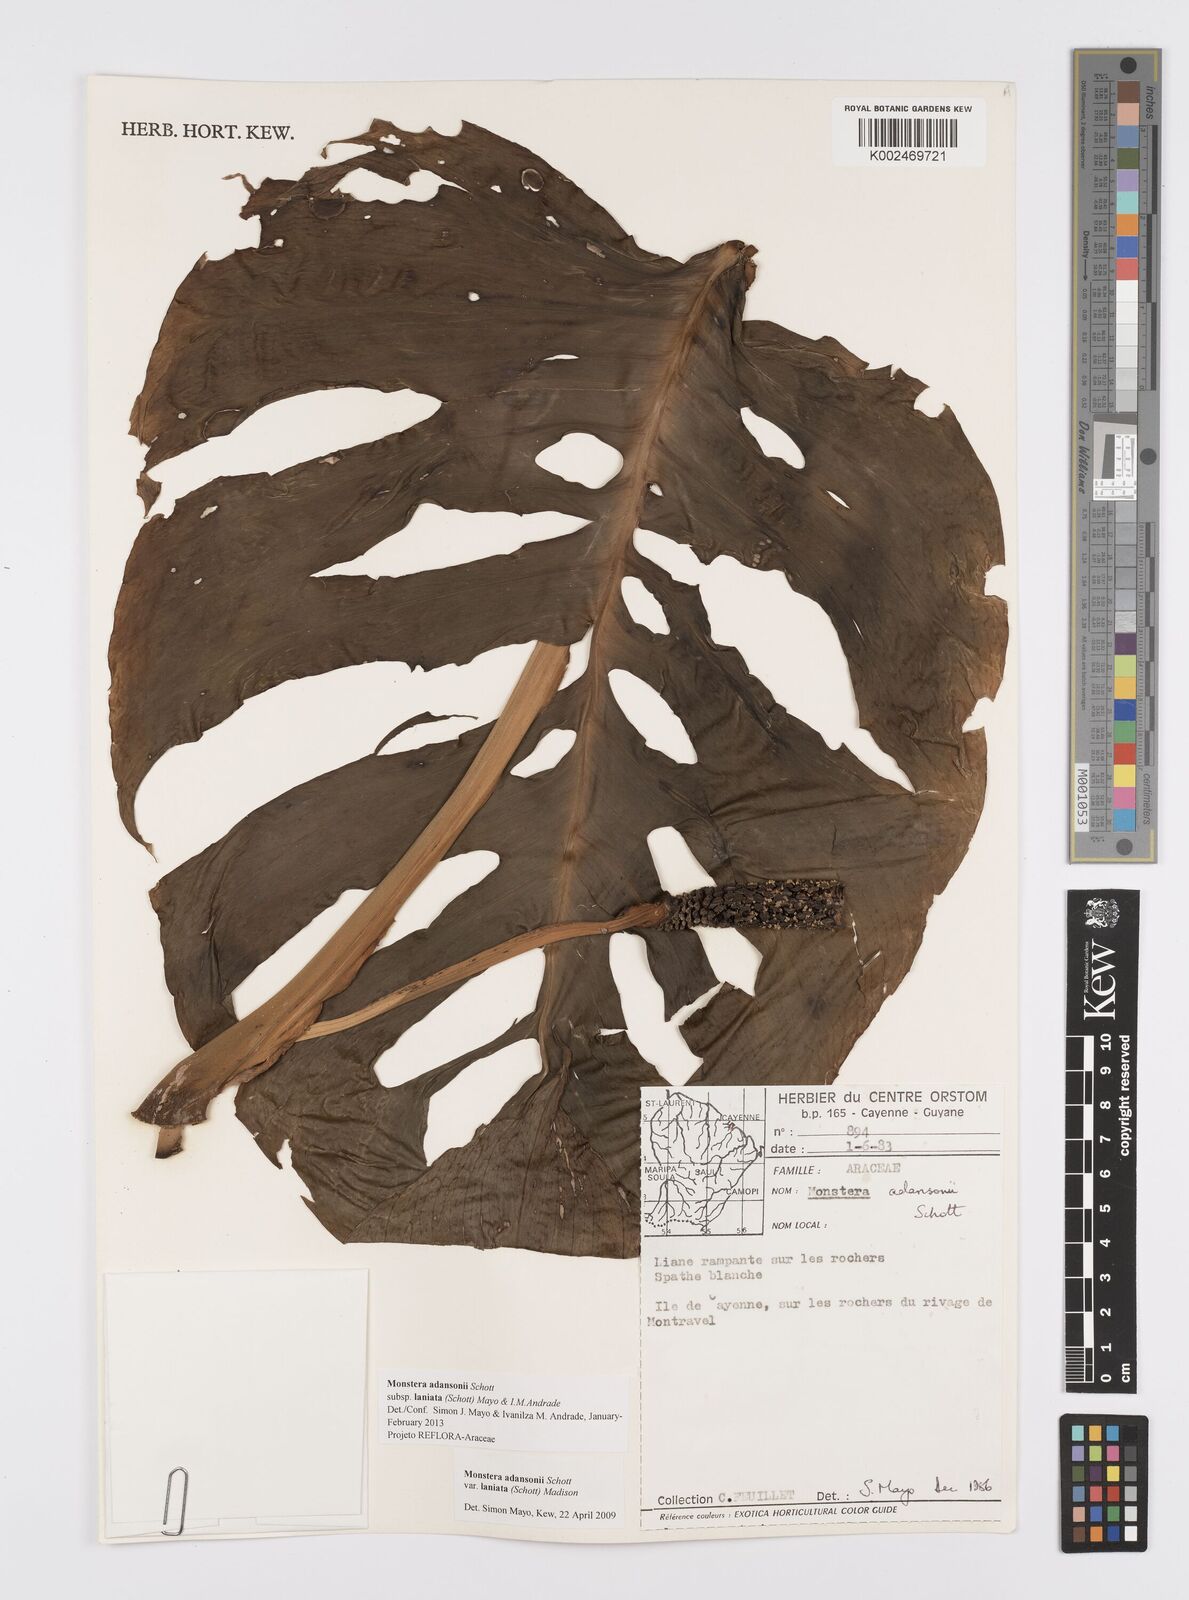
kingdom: Plantae
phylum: Tracheophyta
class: Liliopsida
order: Alismatales
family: Araceae
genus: Monstera
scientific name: Monstera adansonii
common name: Tarovine
